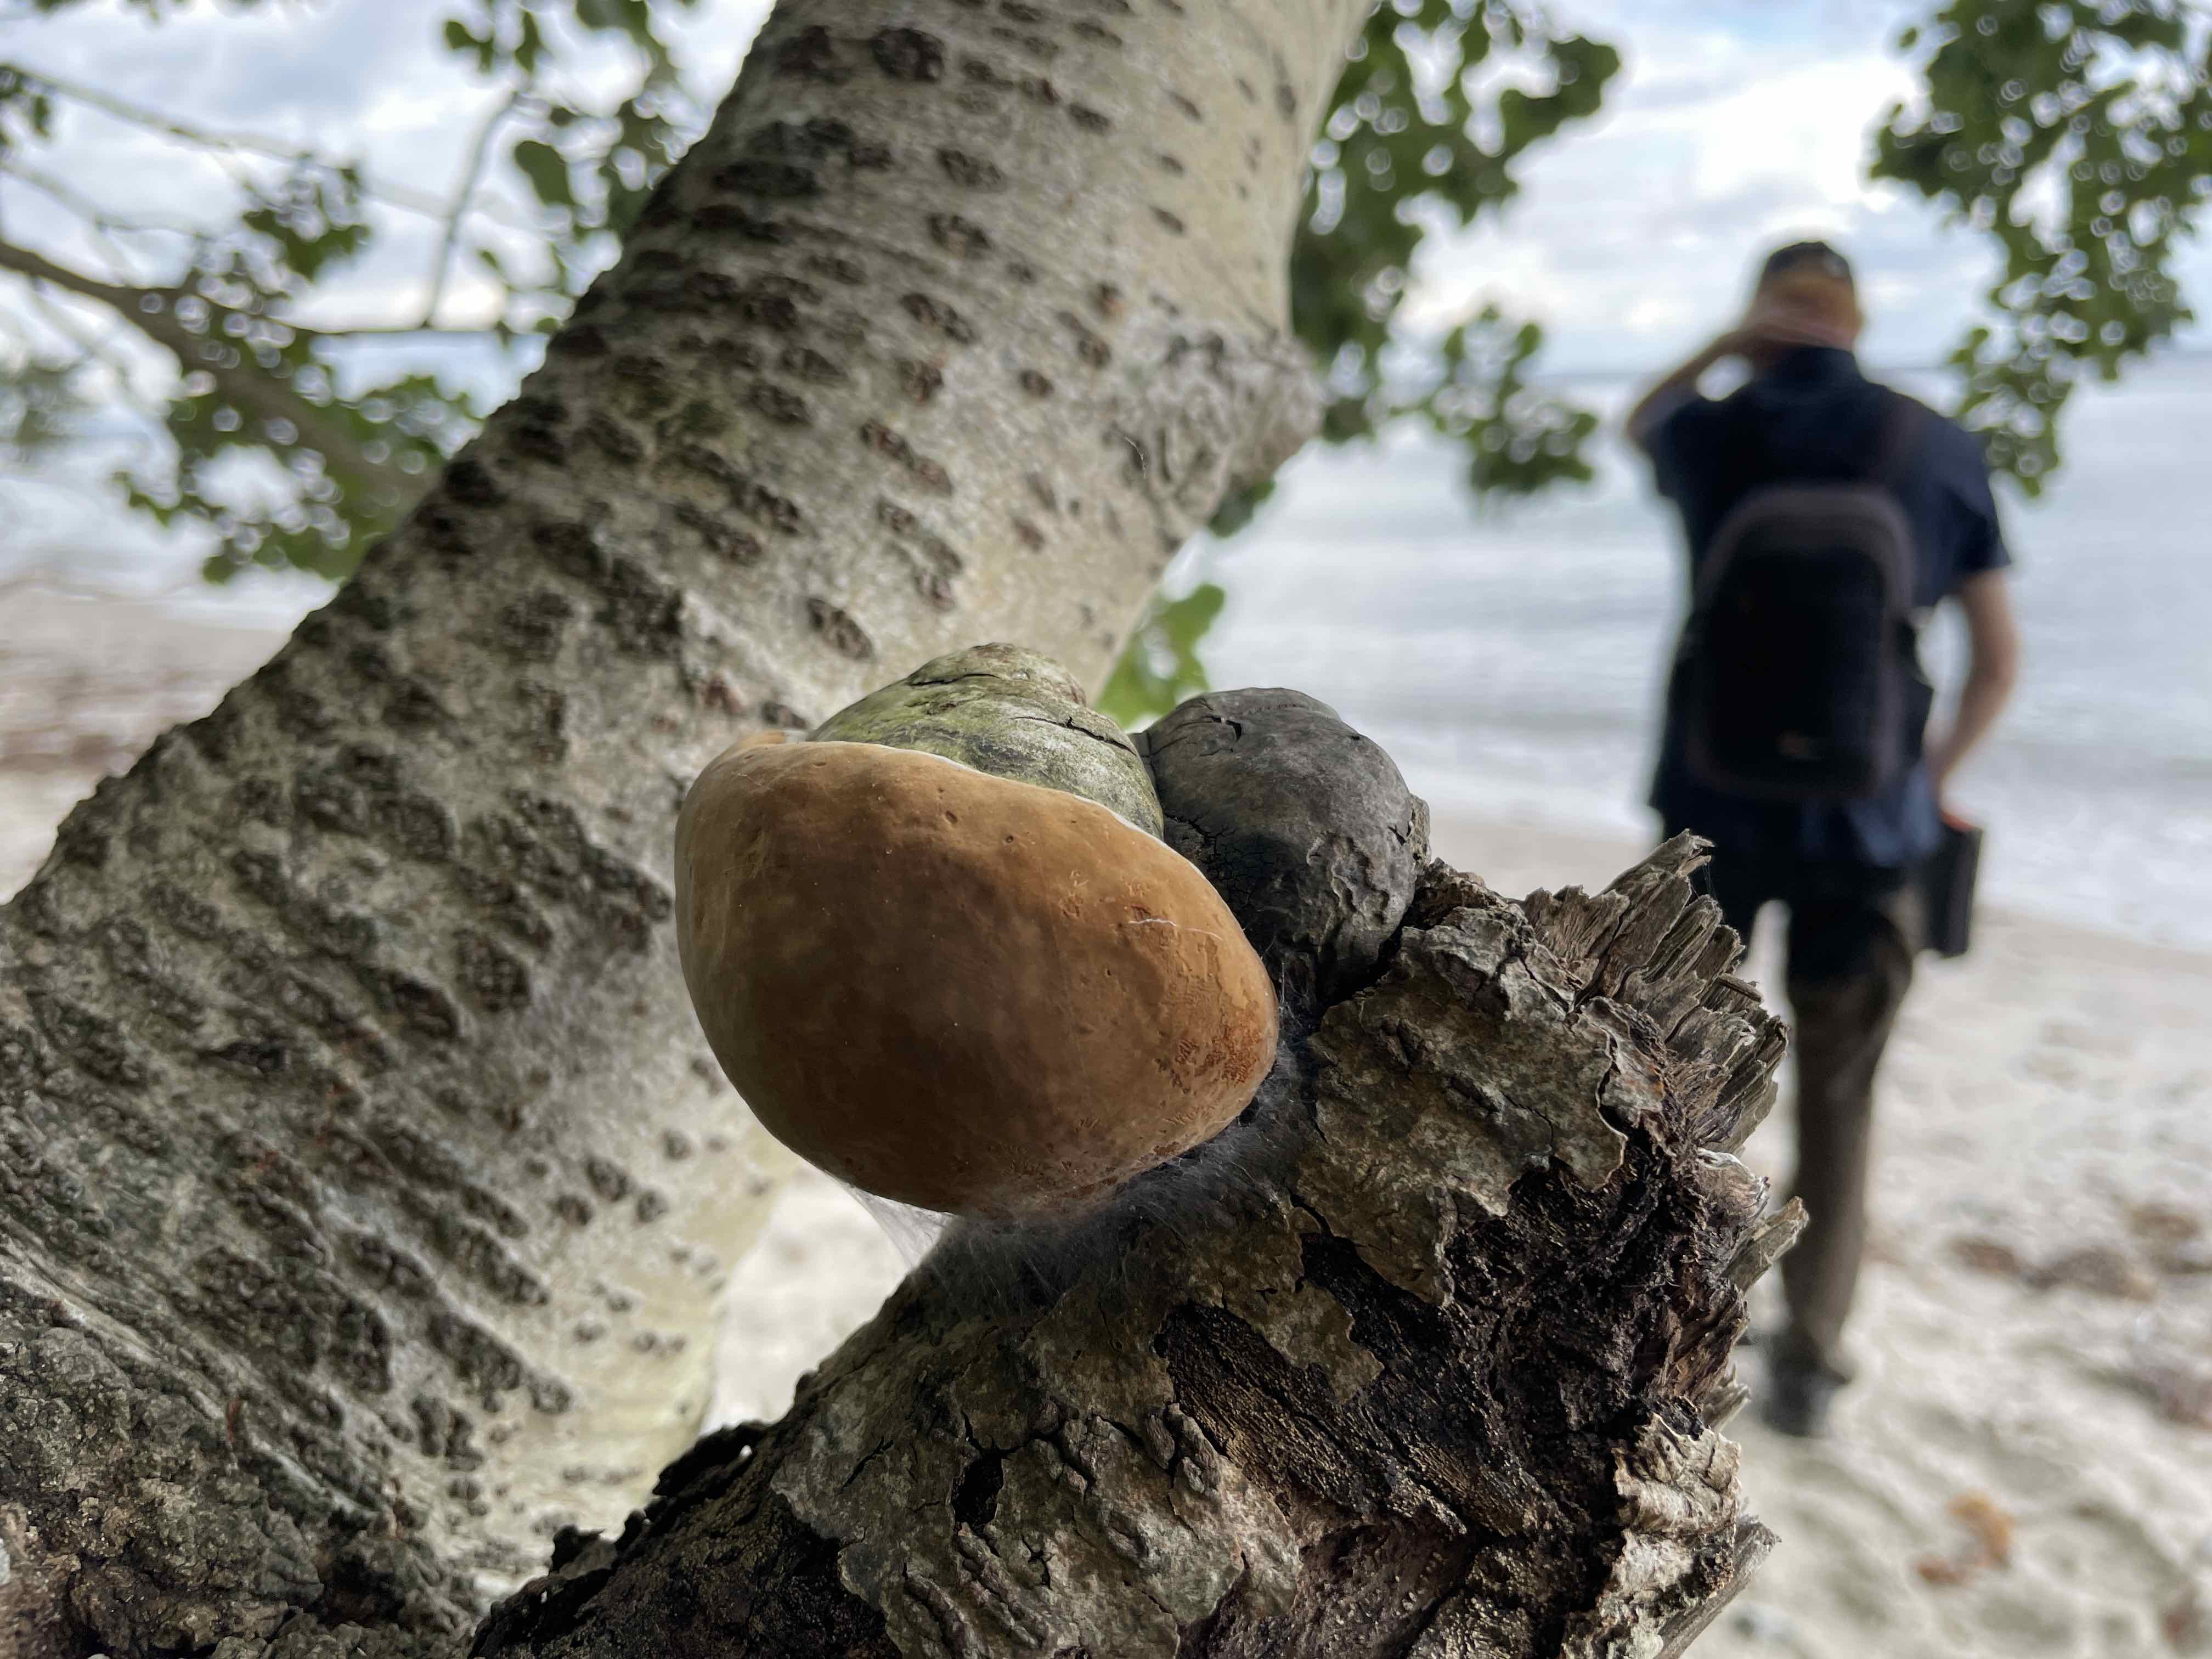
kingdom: Fungi
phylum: Basidiomycota
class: Agaricomycetes
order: Hymenochaetales
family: Hymenochaetaceae
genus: Phellinus
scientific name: Phellinus populicola
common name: poppel-ildporesvamp
